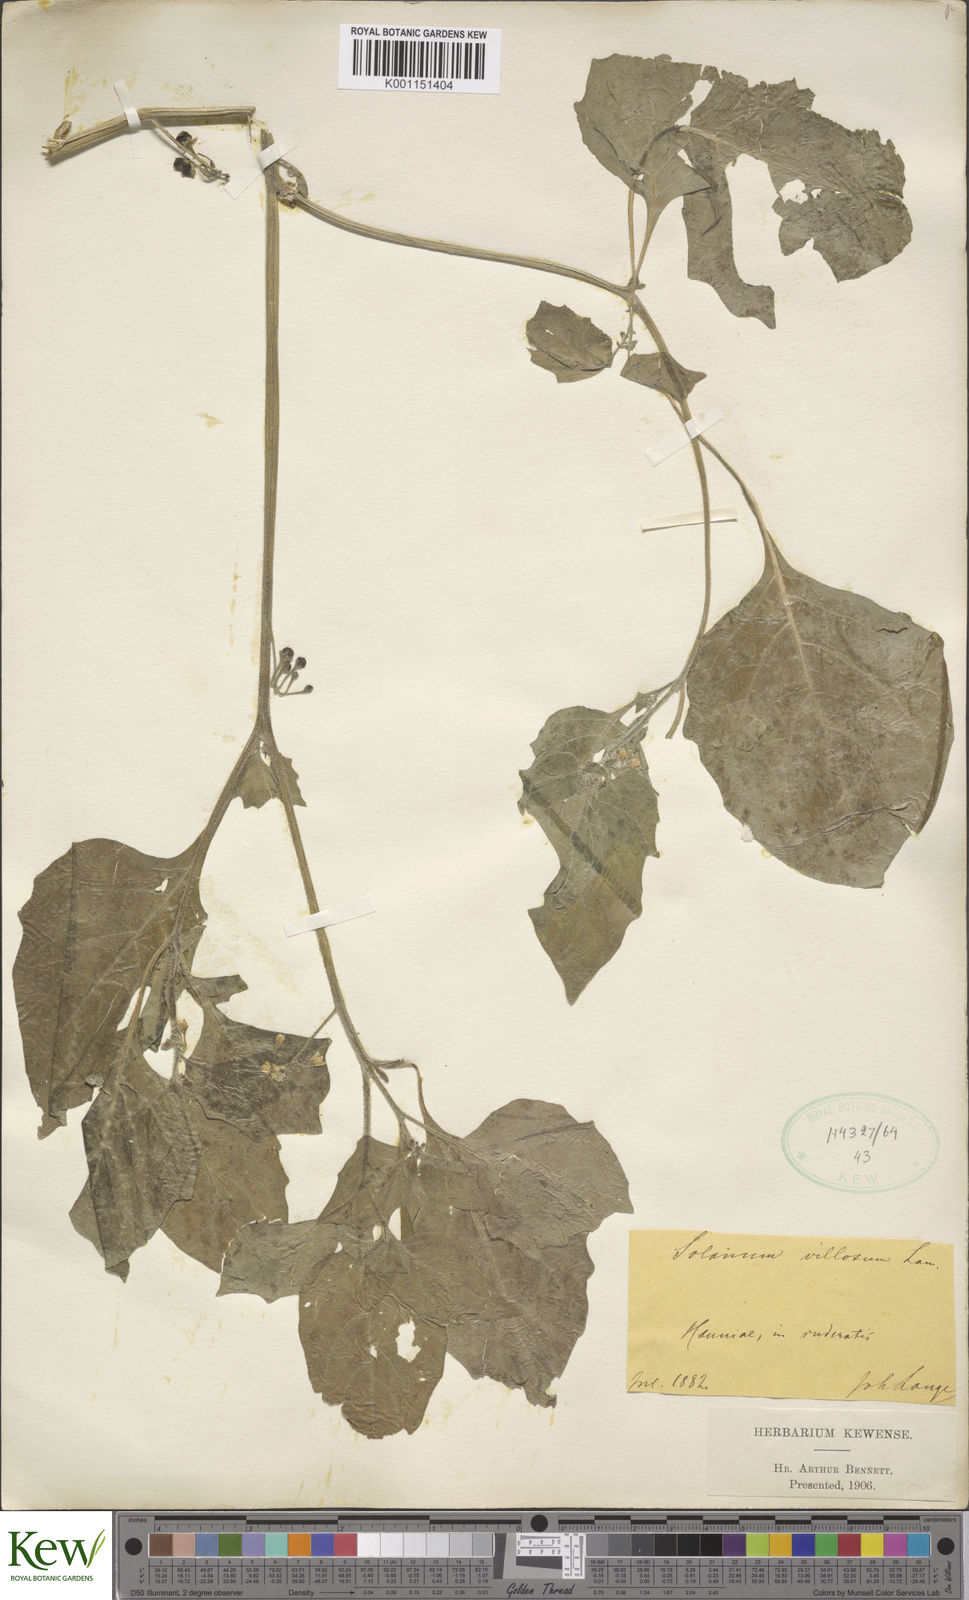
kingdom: Plantae
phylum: Tracheophyta
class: Magnoliopsida
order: Solanales
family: Solanaceae
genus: Solanum
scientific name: Solanum villosum
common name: Red nightshade
